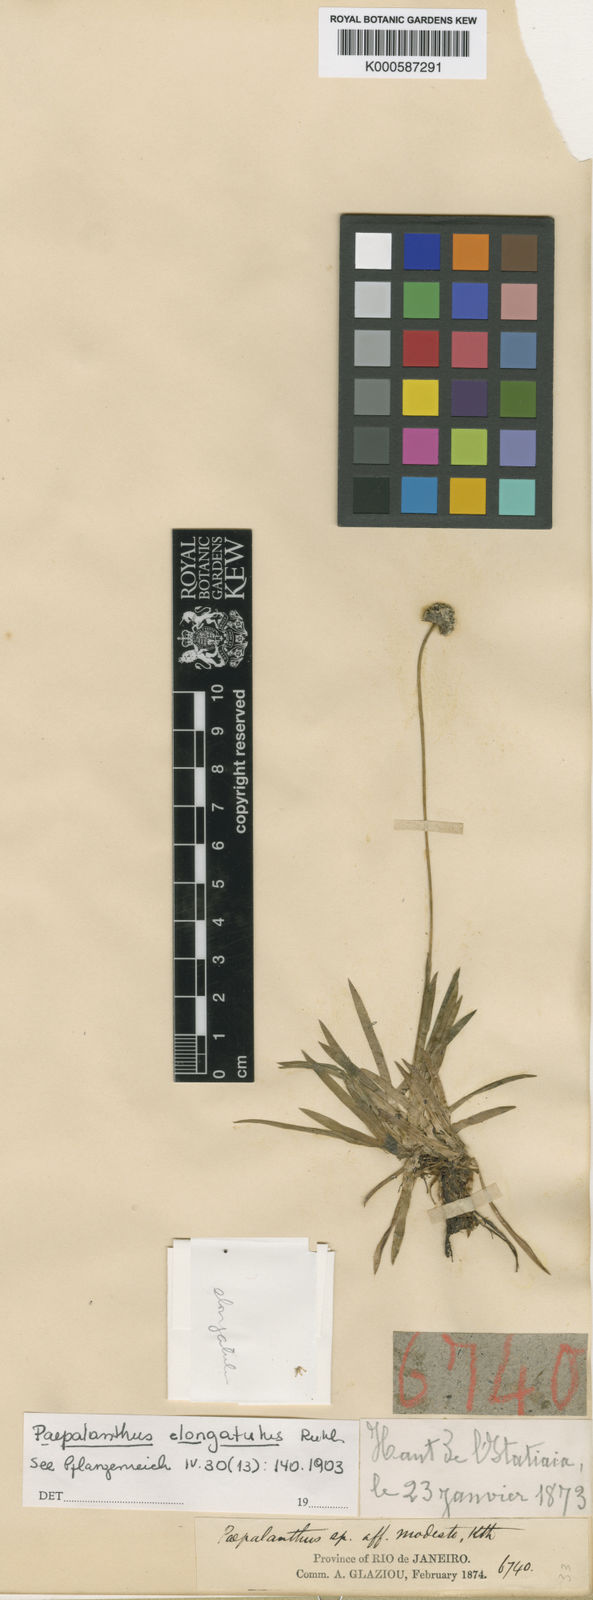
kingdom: Plantae
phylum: Tracheophyta
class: Liliopsida
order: Poales
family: Eriocaulaceae
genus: Paepalanthus
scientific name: Paepalanthus elongatulus
